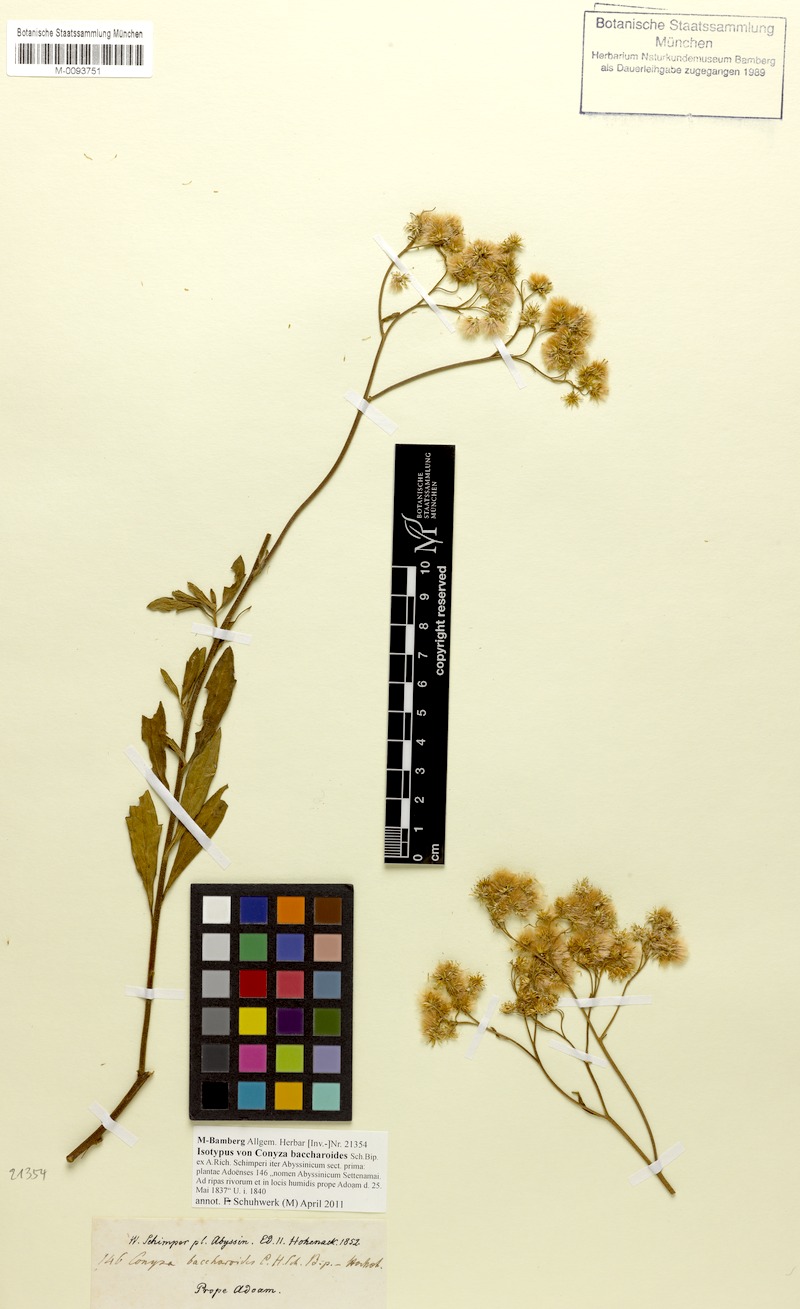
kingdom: Plantae
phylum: Tracheophyta
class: Magnoliopsida
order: Asterales
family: Asteraceae
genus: Pluchea
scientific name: Pluchea dioscoridis
